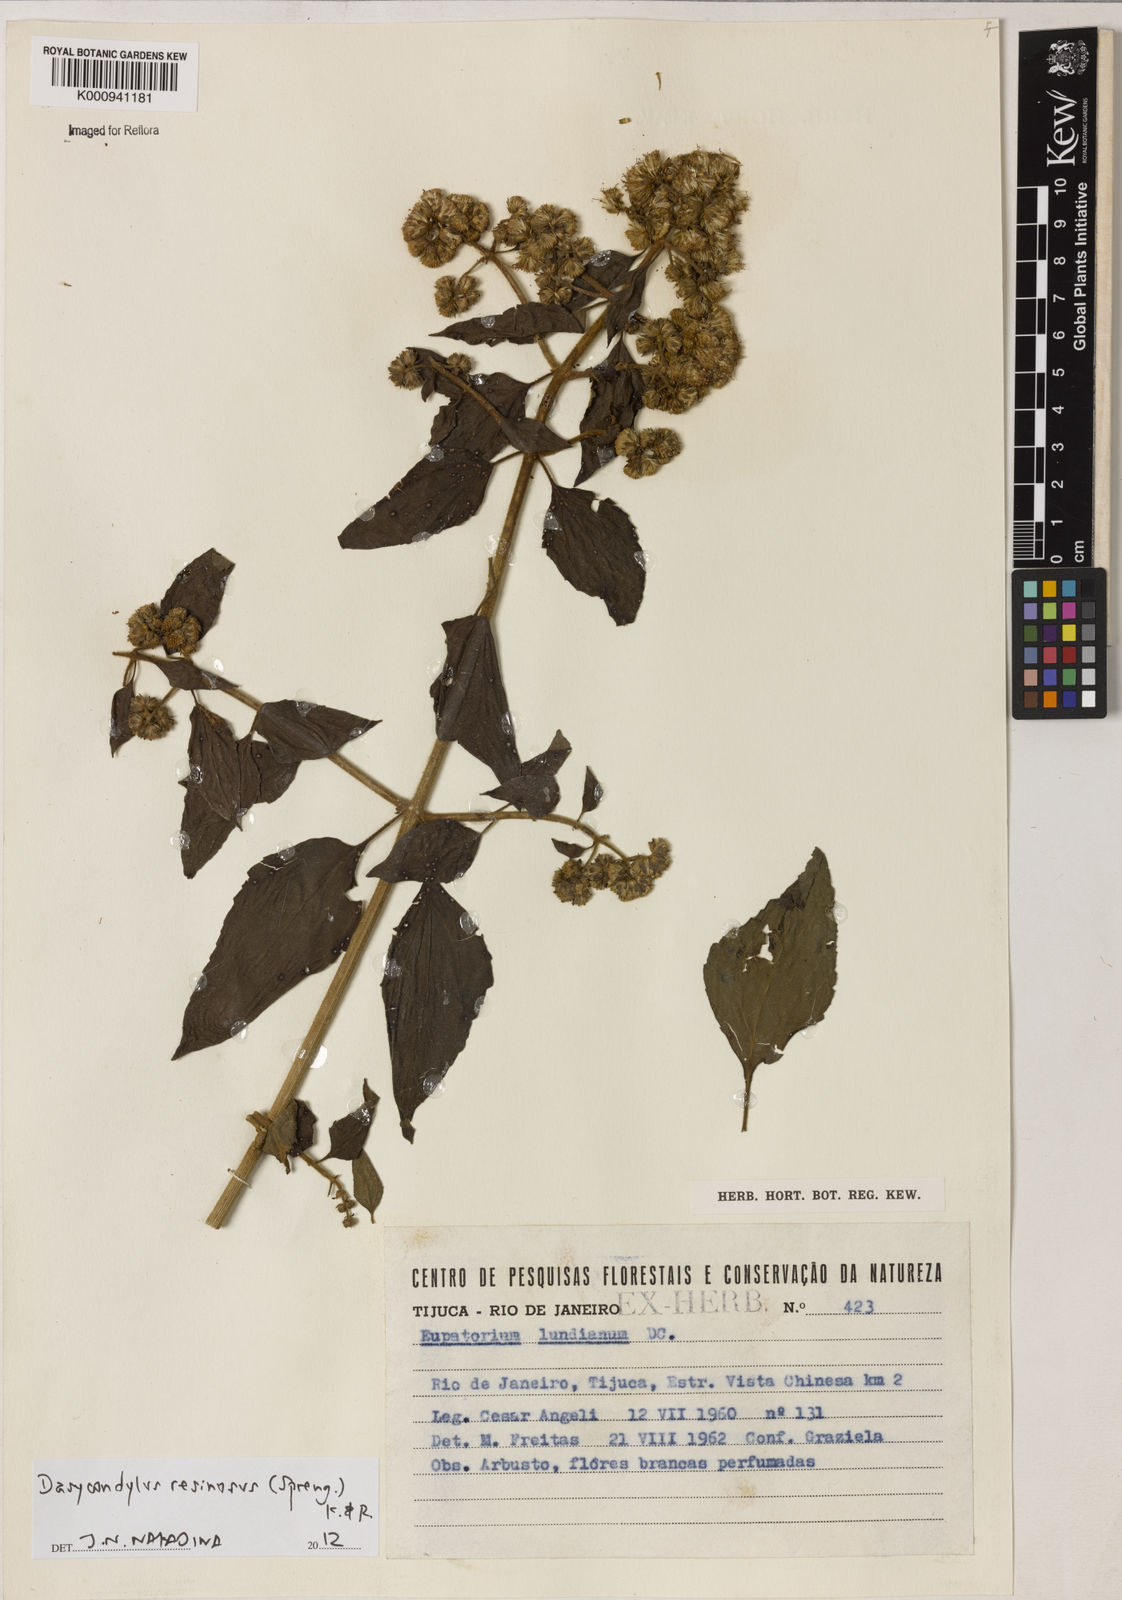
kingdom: Plantae
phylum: Tracheophyta
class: Magnoliopsida
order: Asterales
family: Asteraceae
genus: Dasycondylus
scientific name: Dasycondylus resinosus
